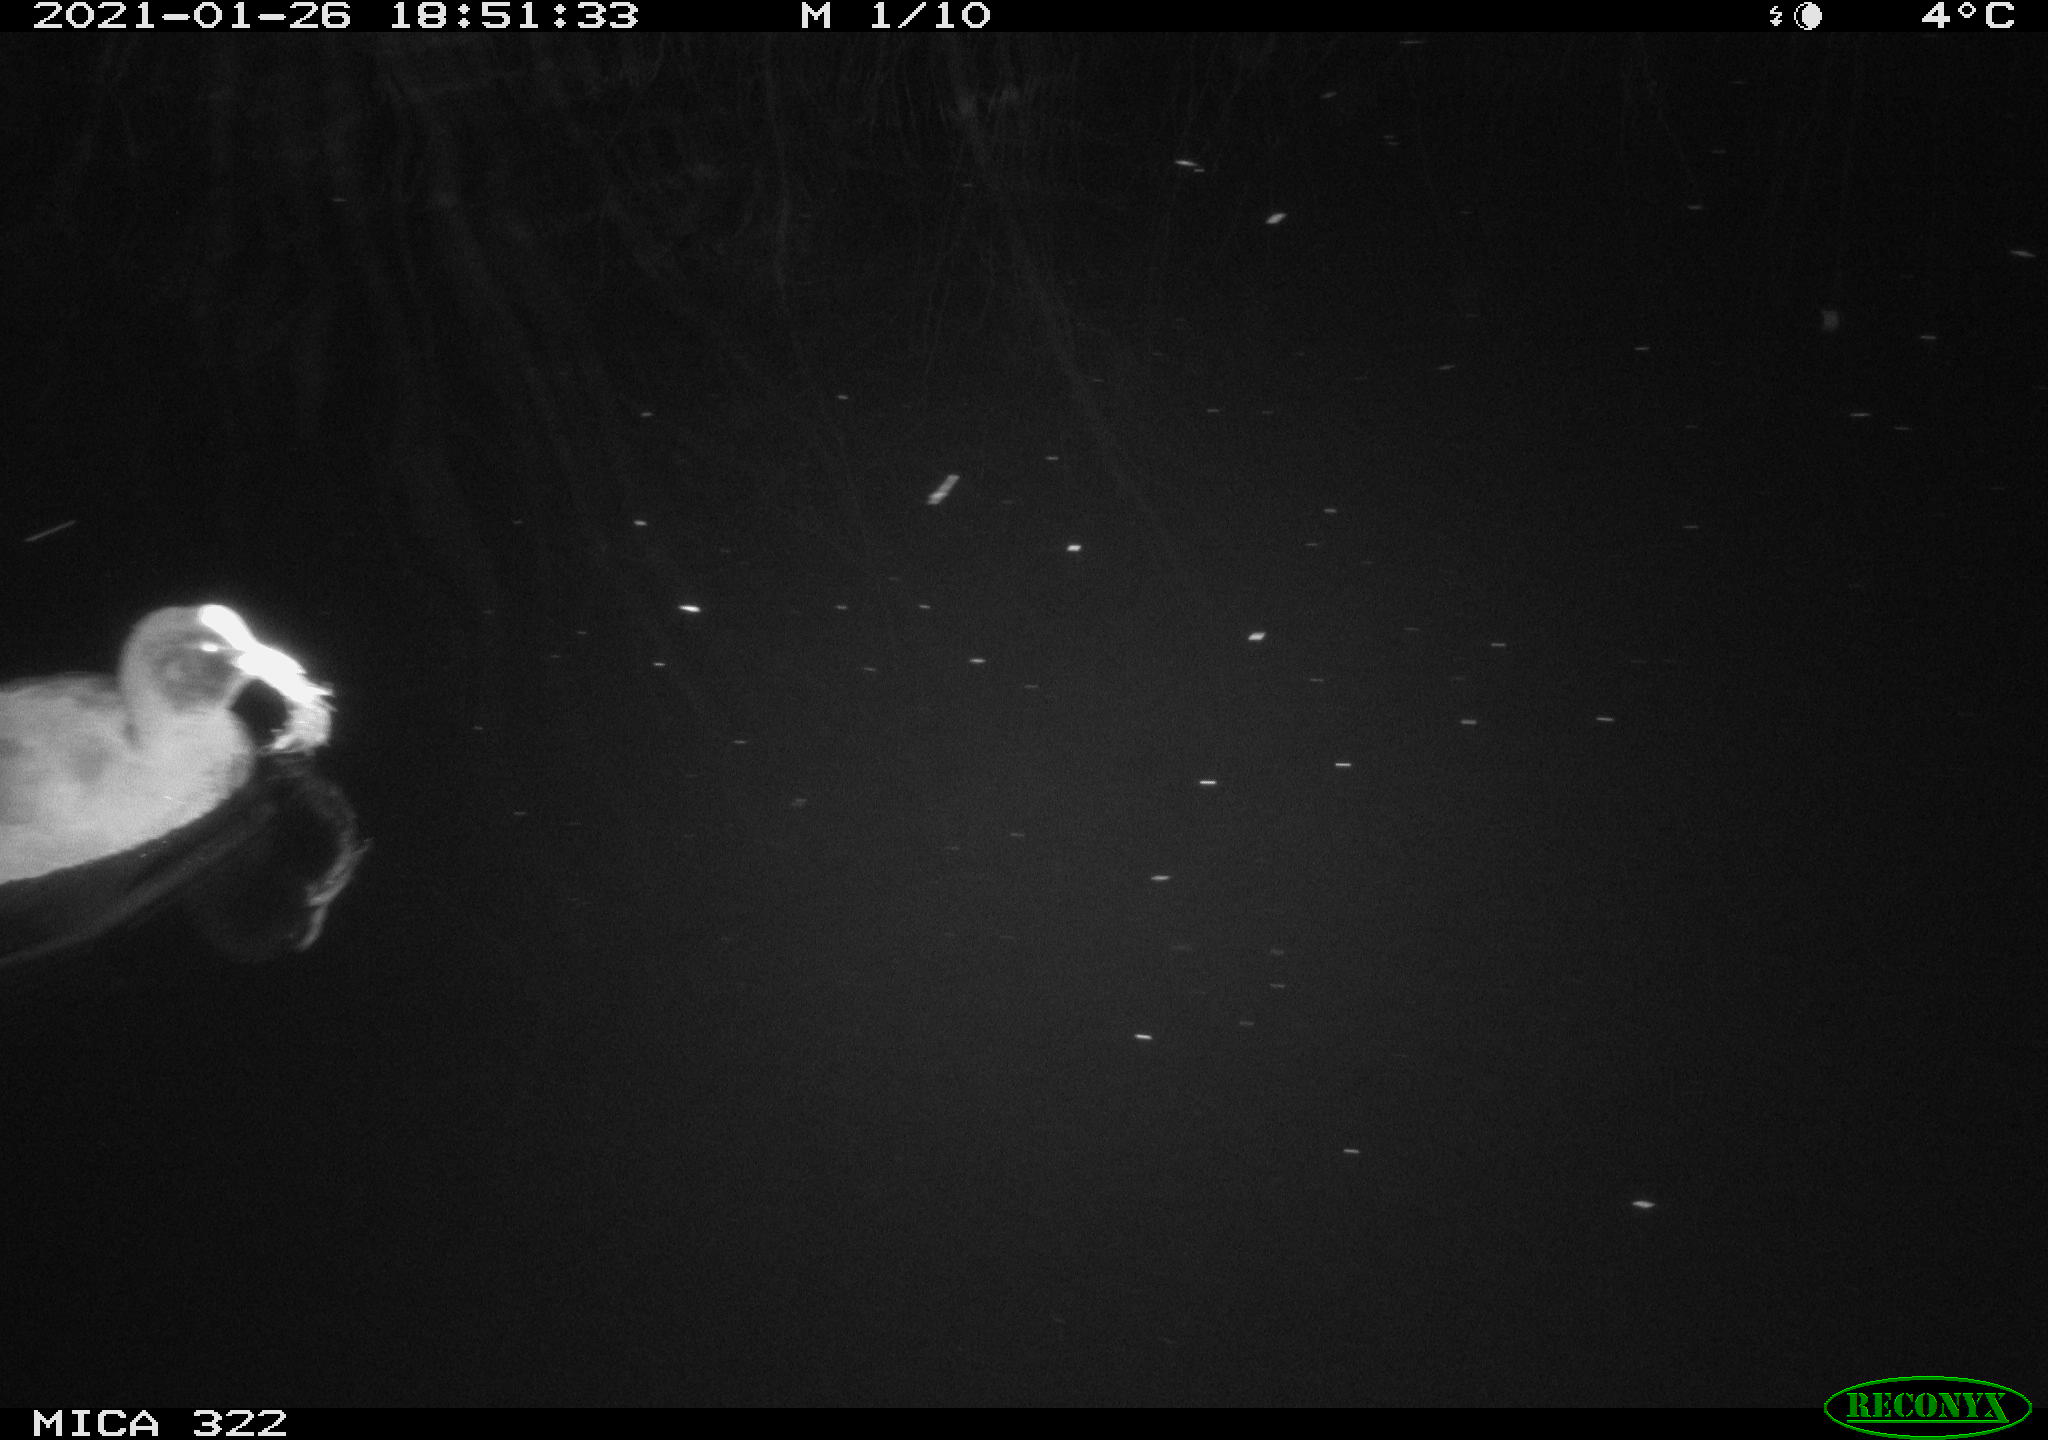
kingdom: Animalia
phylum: Chordata
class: Aves
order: Gruiformes
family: Rallidae
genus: Fulica
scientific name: Fulica atra
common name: Eurasian coot
